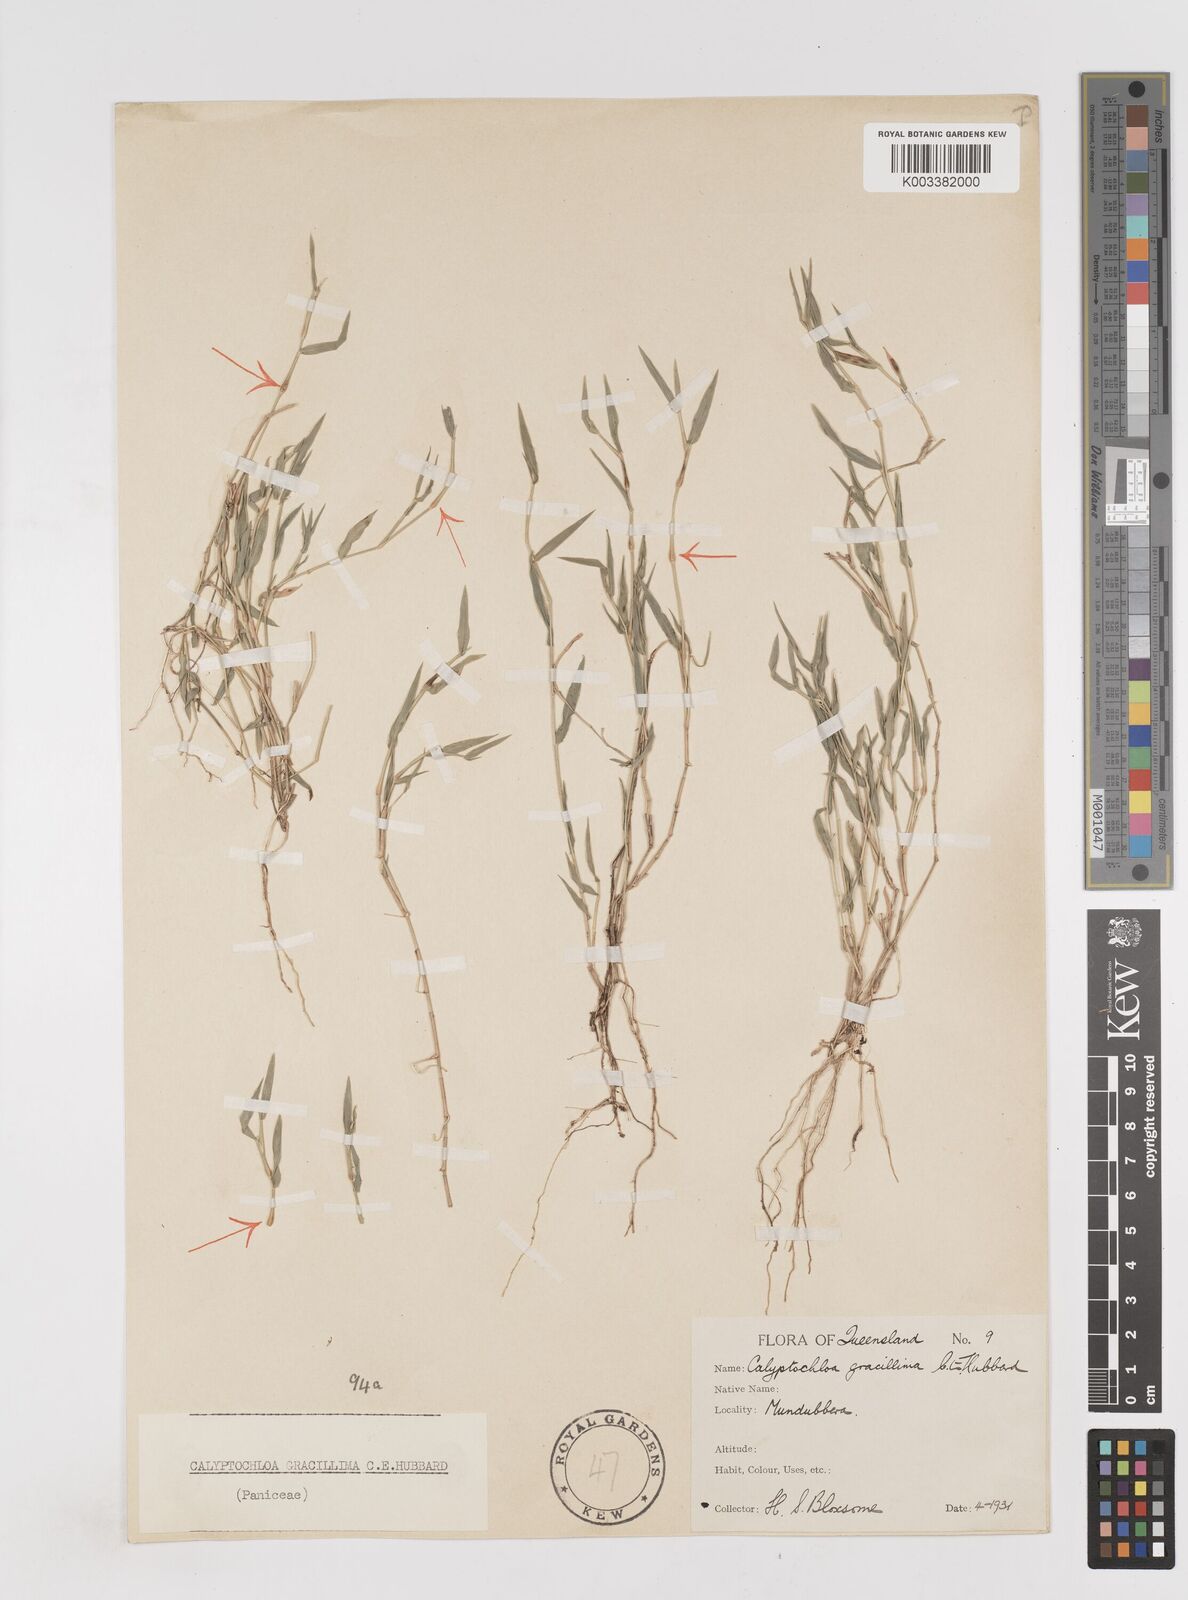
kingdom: Plantae
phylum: Tracheophyta
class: Liliopsida
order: Poales
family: Poaceae
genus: Calyptochloa
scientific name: Calyptochloa gracillima
